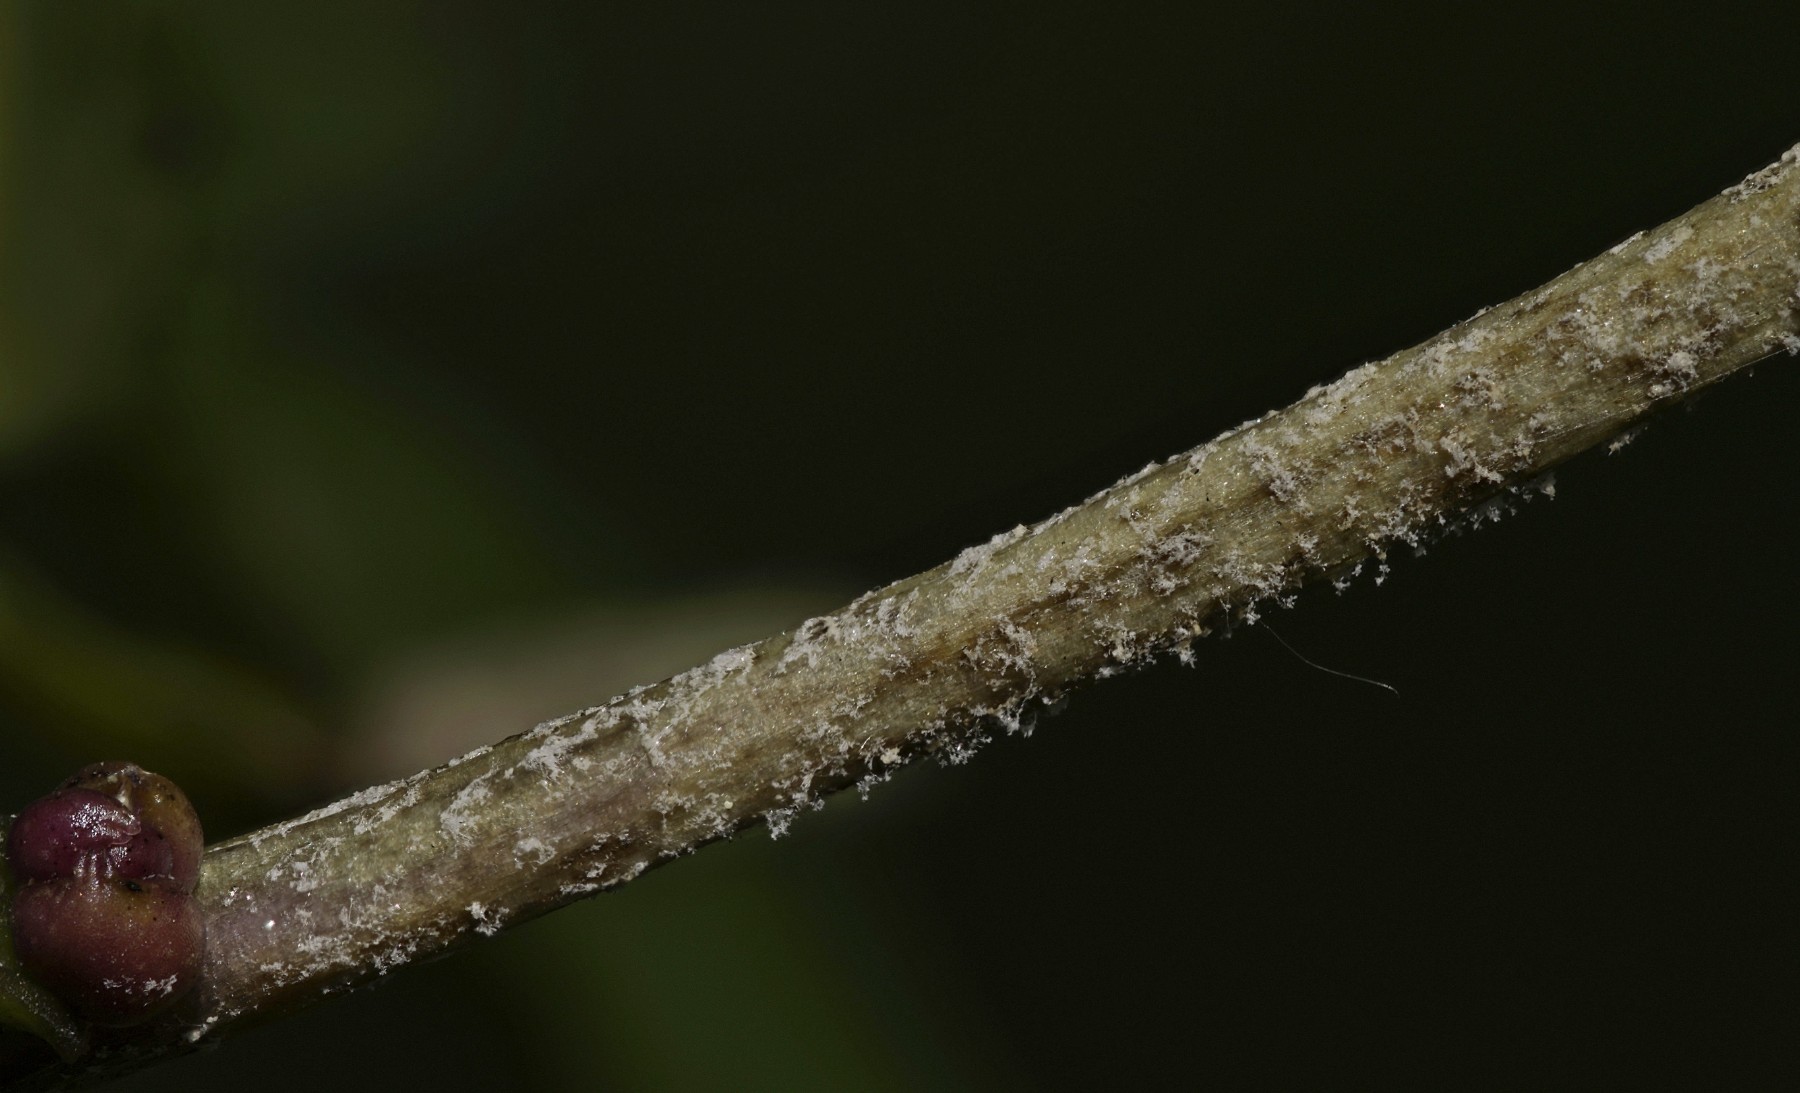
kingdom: Chromista
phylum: Oomycota
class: Peronosporea
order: Peronosporales
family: Peronosporaceae
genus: Hyaloperonospora
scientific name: Hyaloperonospora dentariae
